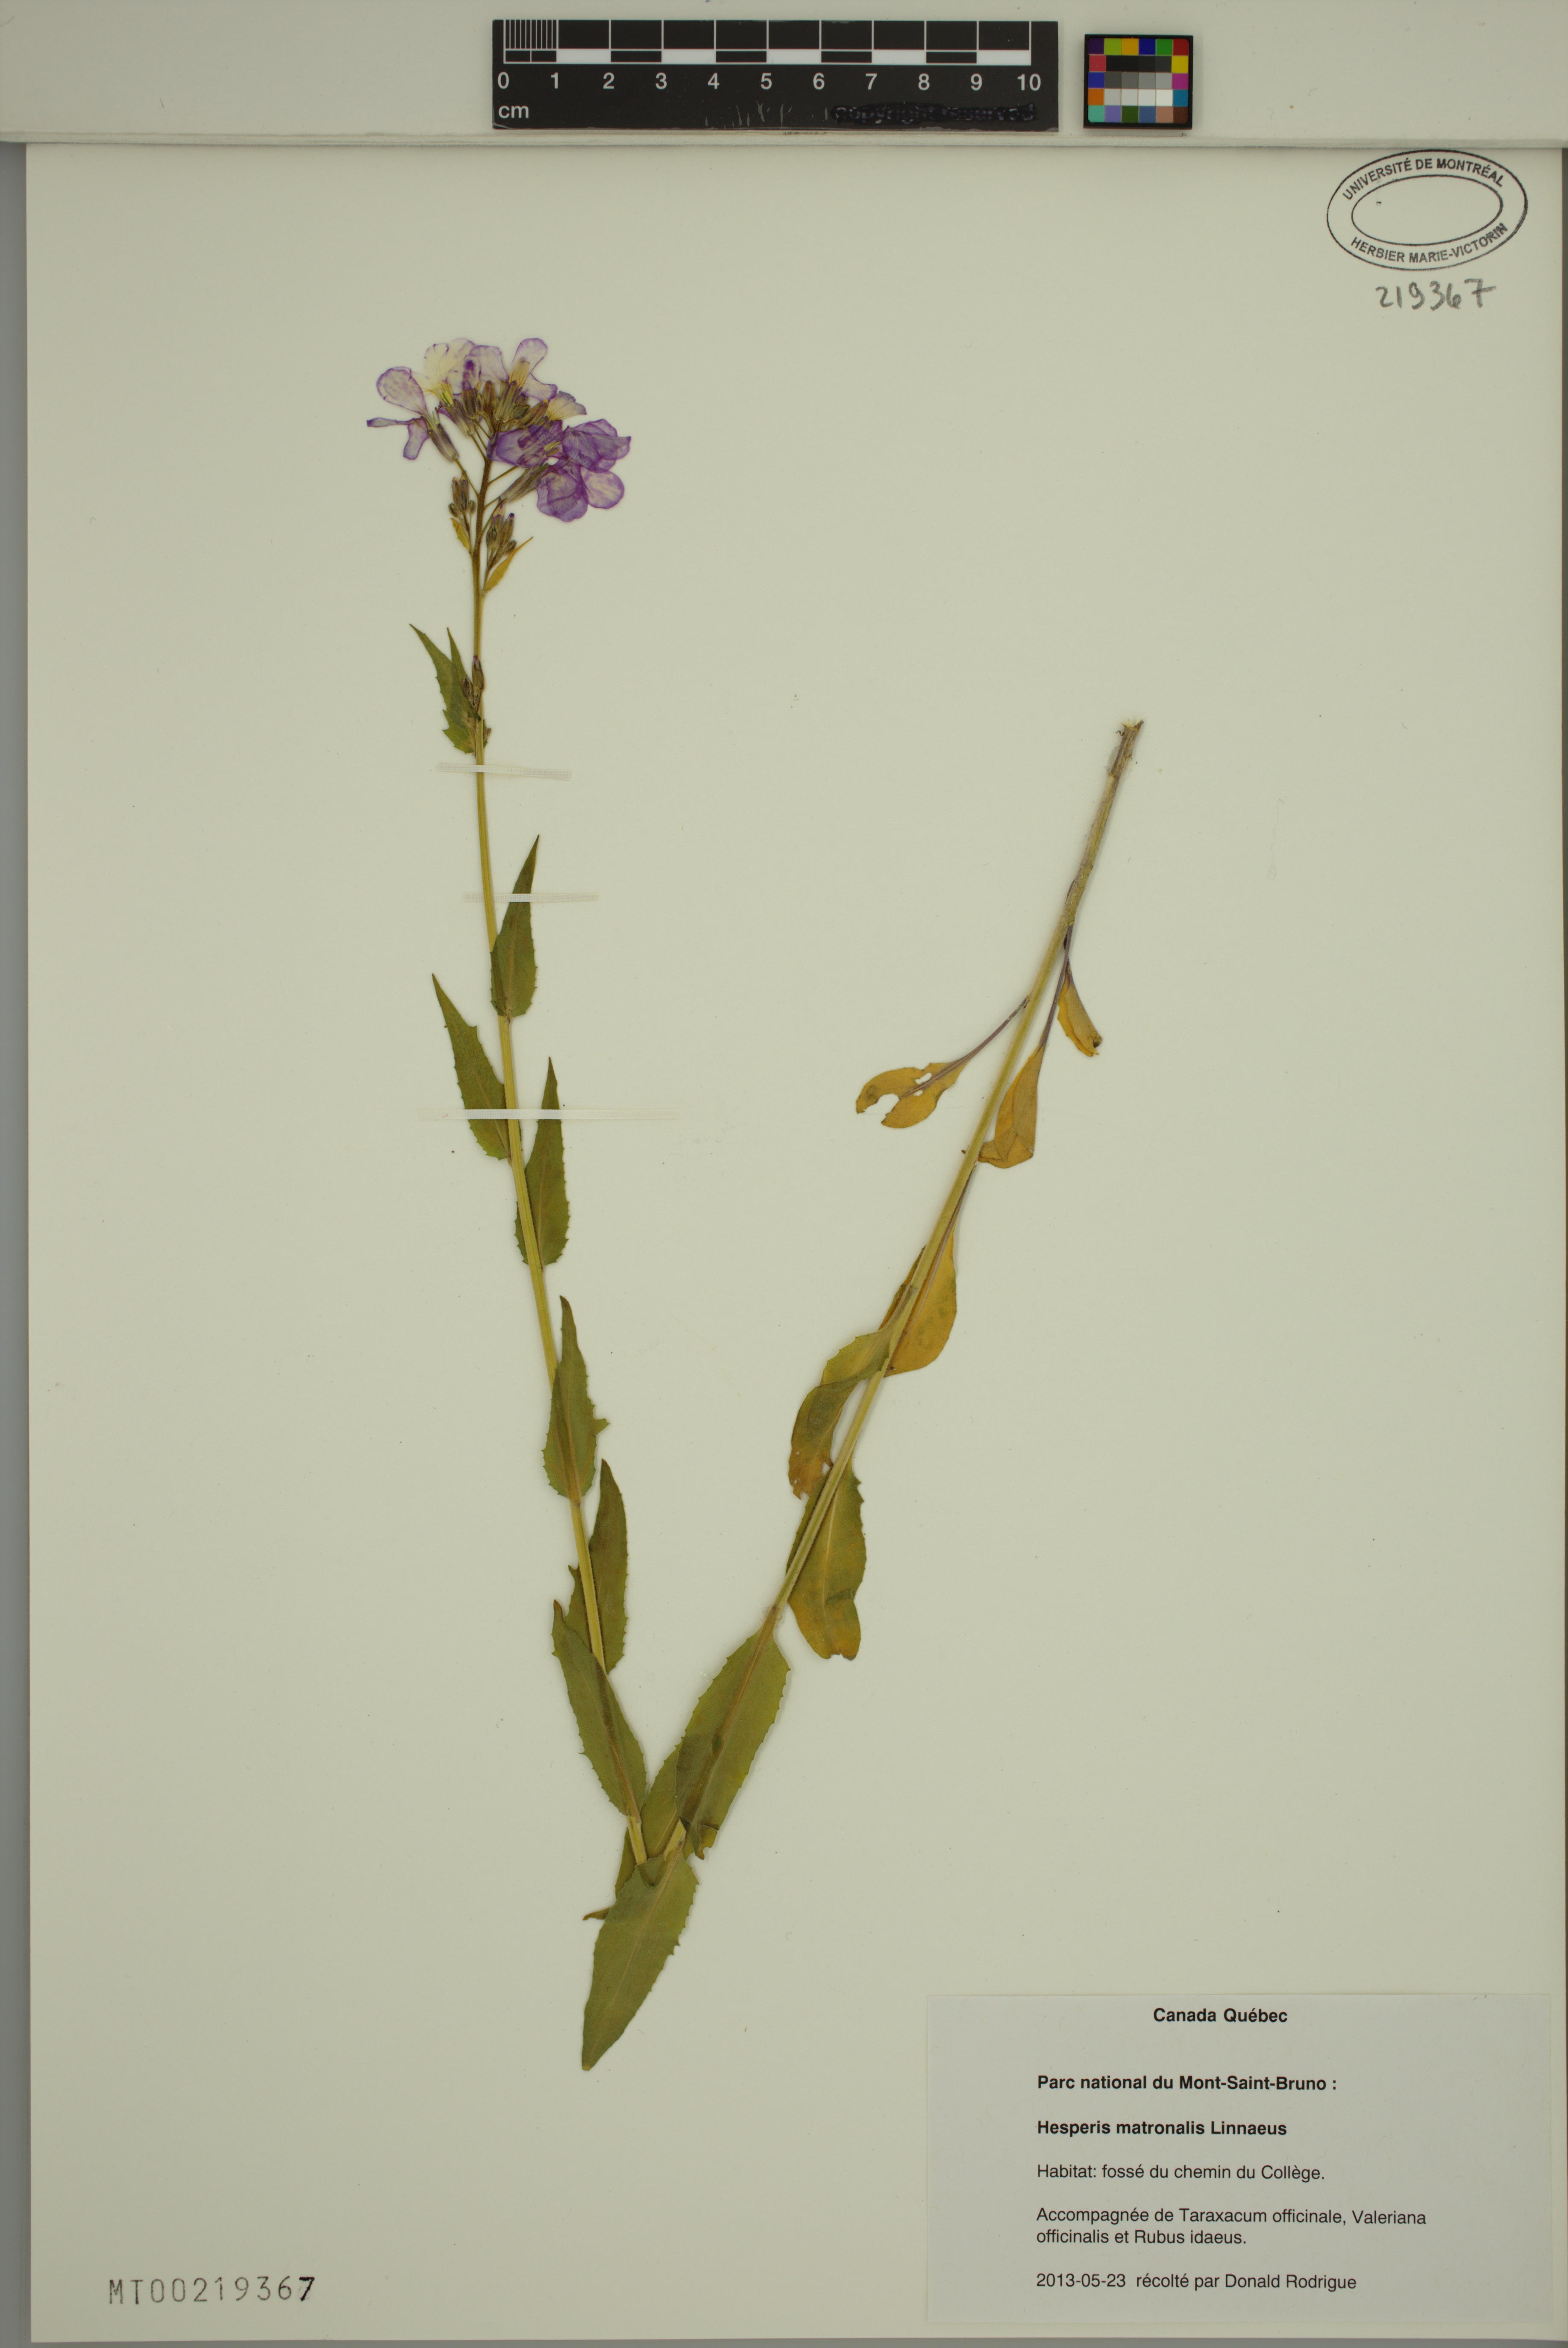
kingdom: Plantae
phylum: Tracheophyta
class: Magnoliopsida
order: Brassicales
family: Brassicaceae
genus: Hesperis
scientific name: Hesperis matronalis
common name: Dame's-violet
